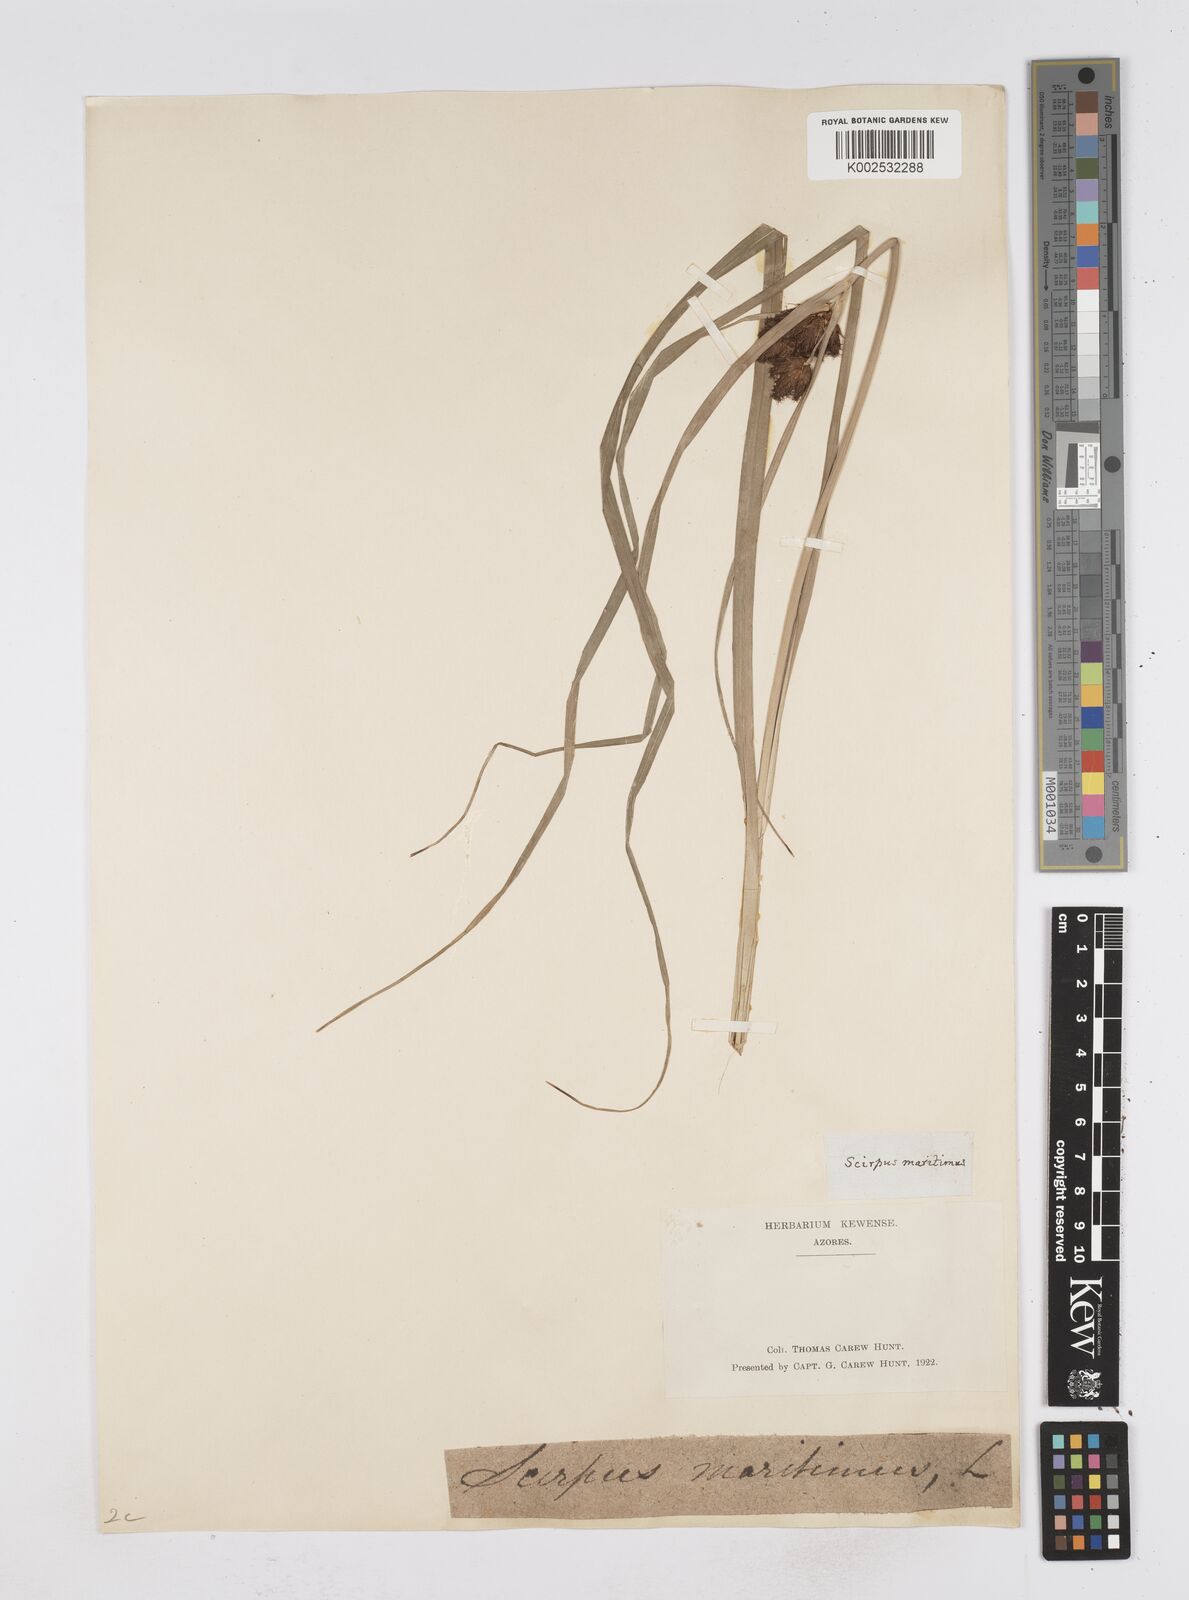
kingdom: Plantae
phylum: Tracheophyta
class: Liliopsida
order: Poales
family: Cyperaceae
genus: Bolboschoenus
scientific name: Bolboschoenus maritimus
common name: Sea club-rush
